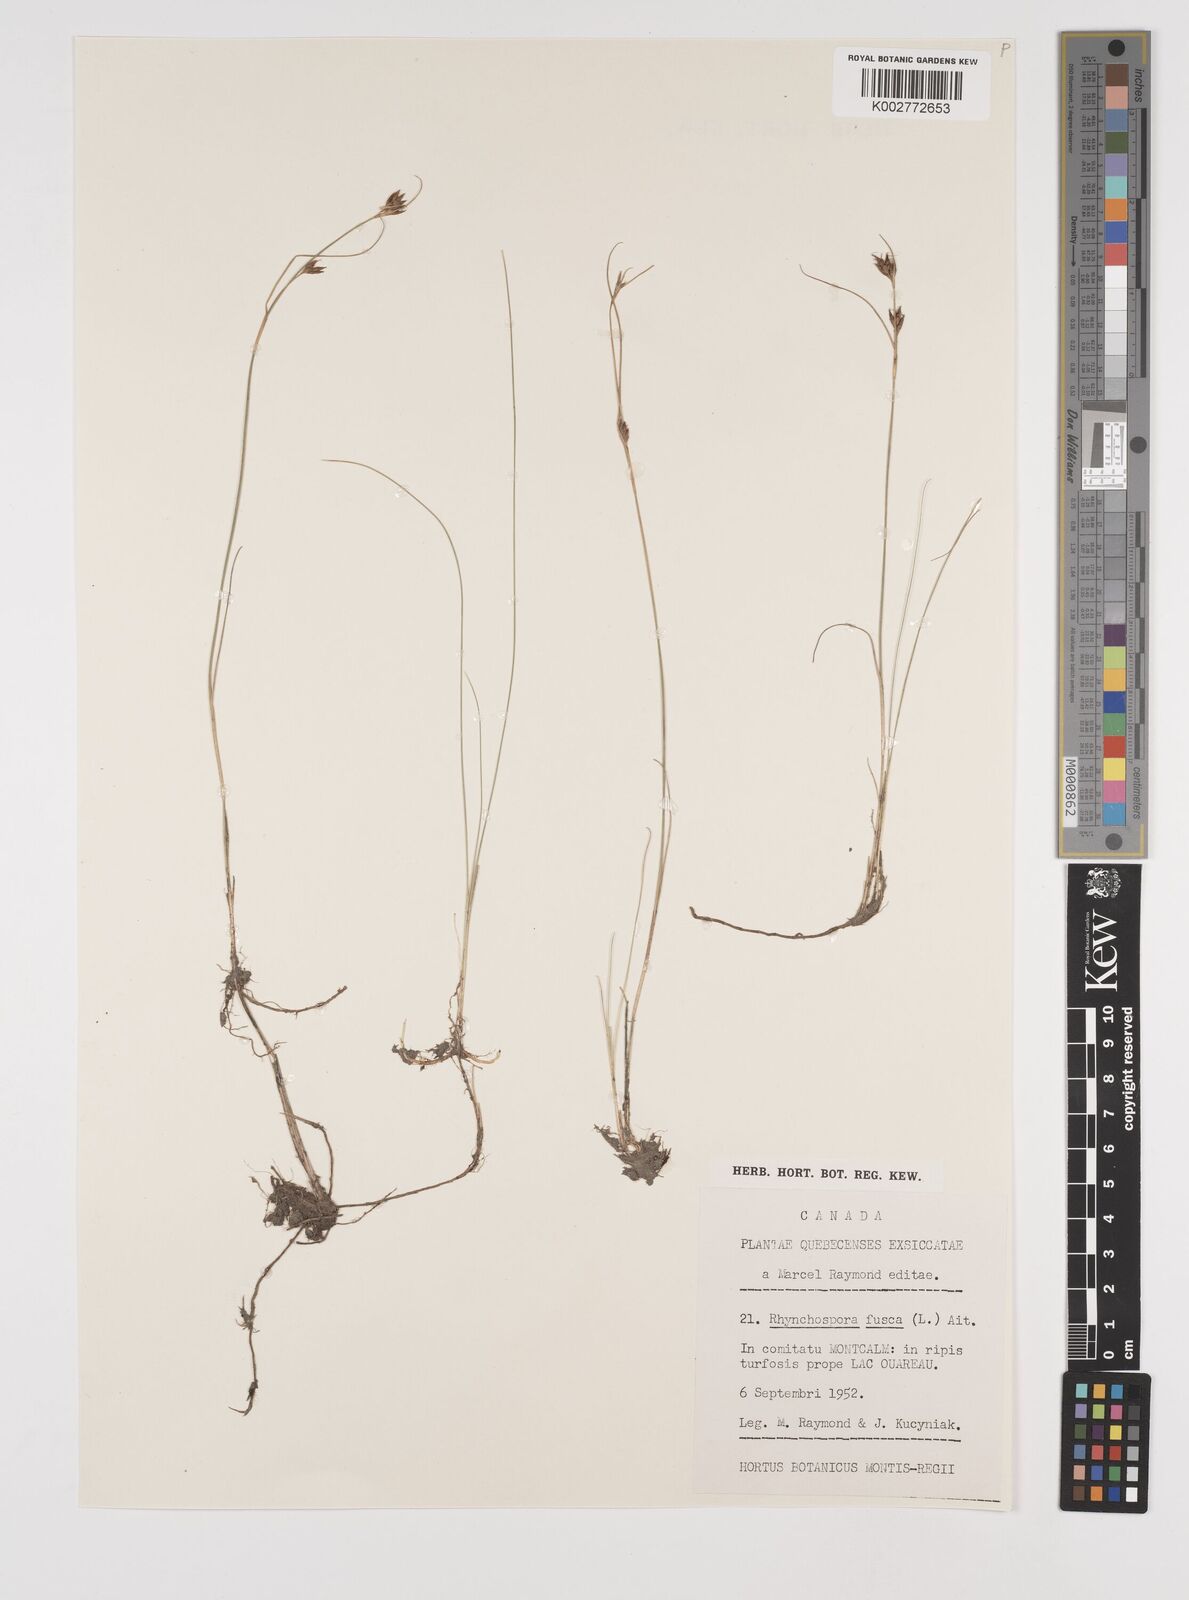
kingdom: Plantae
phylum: Tracheophyta
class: Liliopsida
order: Poales
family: Cyperaceae
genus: Rhynchospora
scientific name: Rhynchospora fusca
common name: Brown beak-sedge
